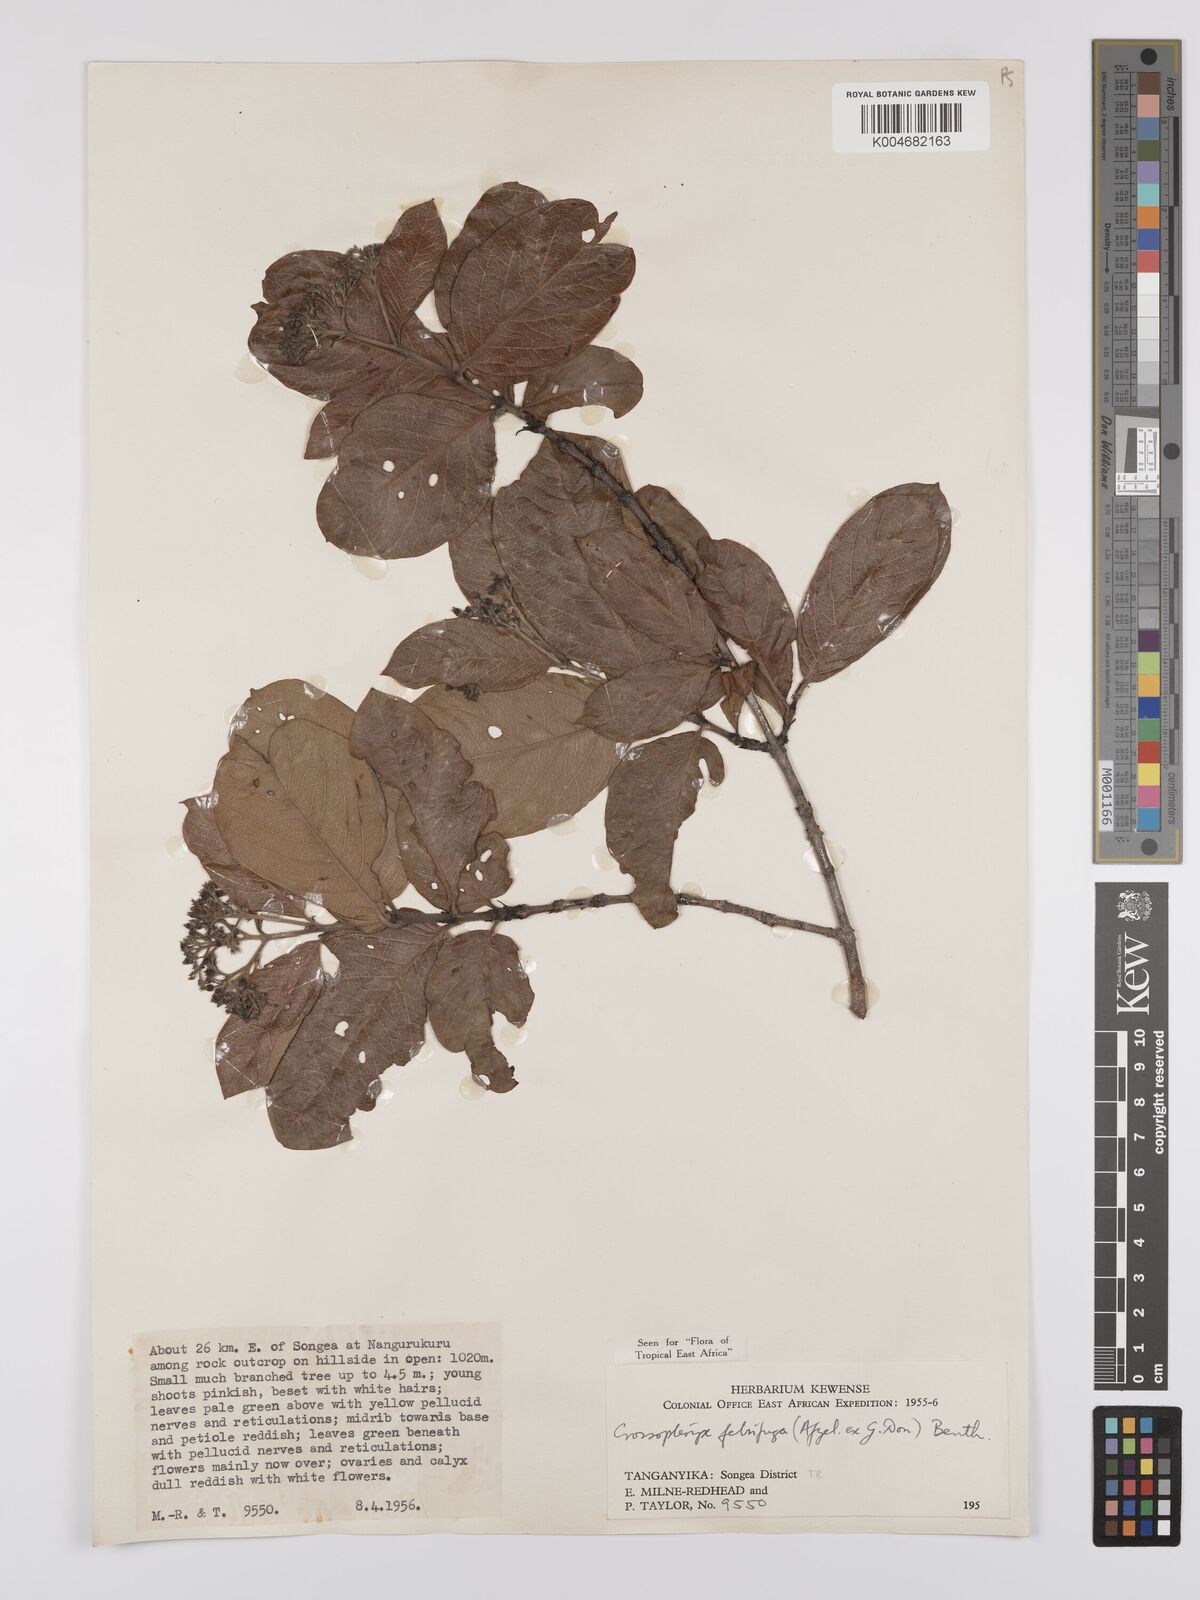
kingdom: Plantae
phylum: Tracheophyta
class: Magnoliopsida
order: Gentianales
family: Rubiaceae
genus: Crossopteryx
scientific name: Crossopteryx febrifuga
